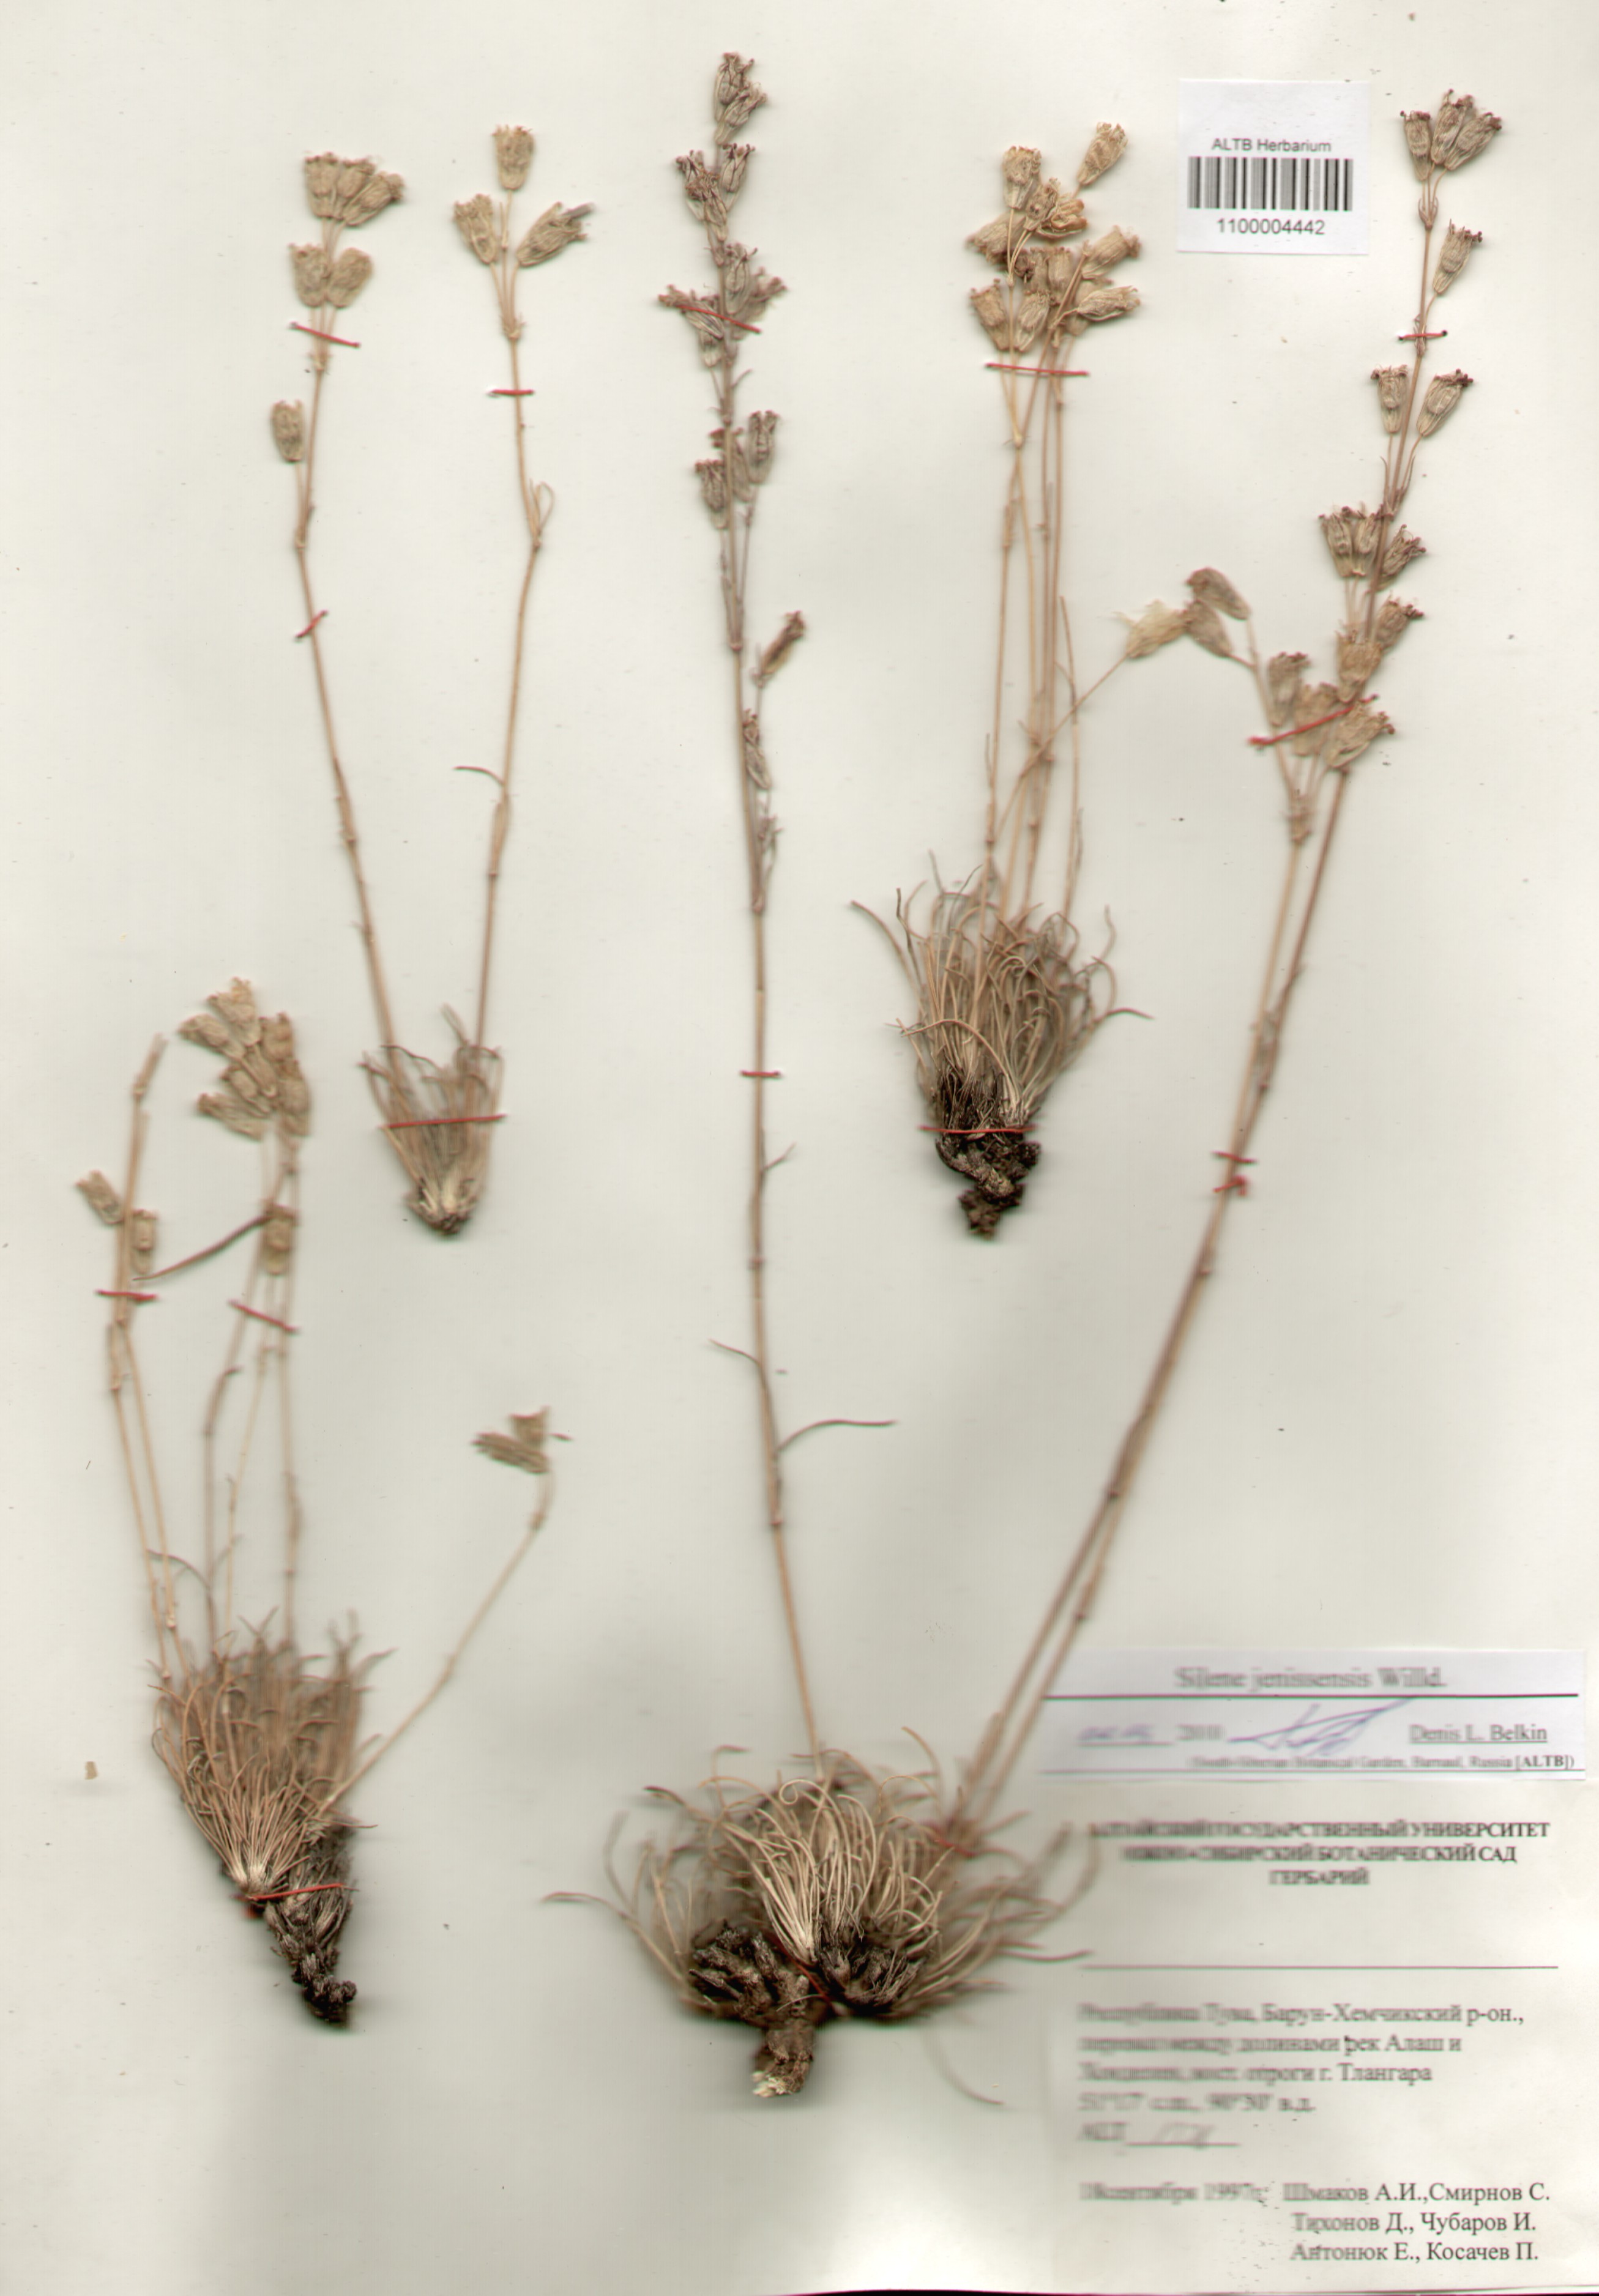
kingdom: Plantae
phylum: Tracheophyta
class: Magnoliopsida
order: Caryophyllales
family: Caryophyllaceae
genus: Silene
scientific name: Silene jeniseensis
